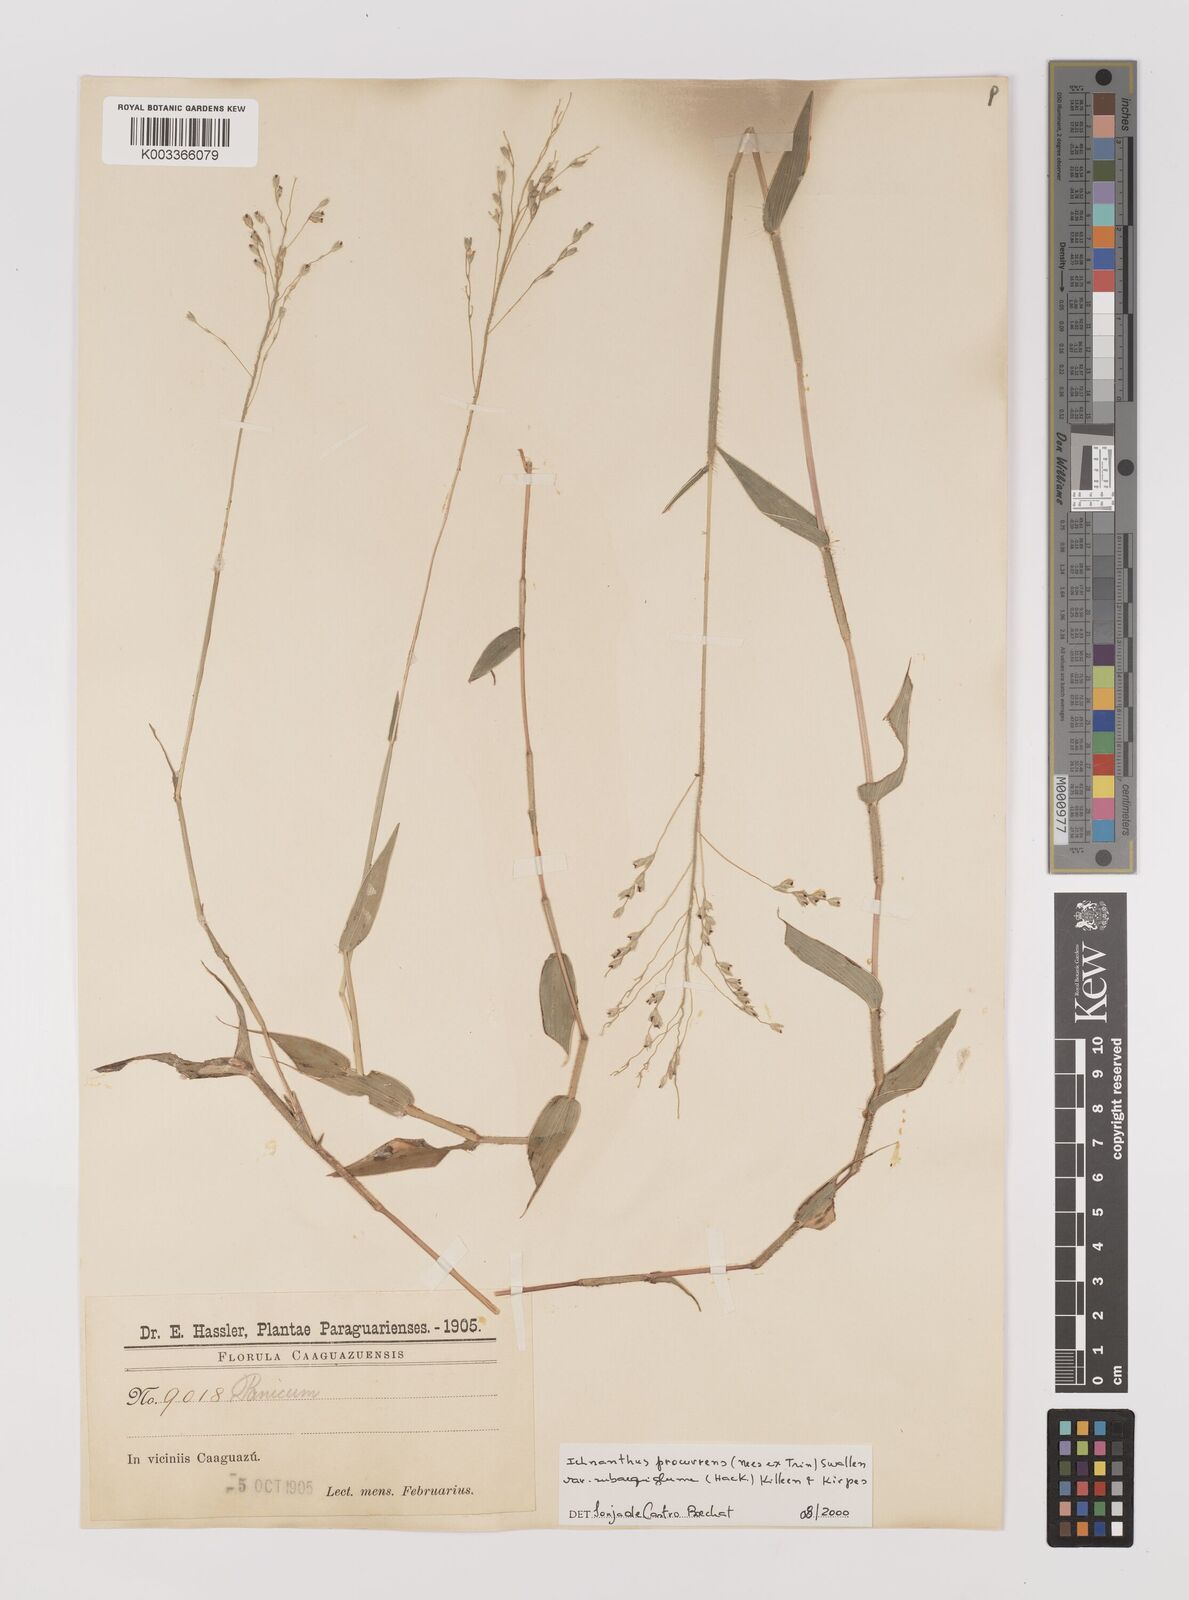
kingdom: Plantae
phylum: Tracheophyta
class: Liliopsida
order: Poales
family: Poaceae
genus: Oedochloa
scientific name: Oedochloa procurrens
